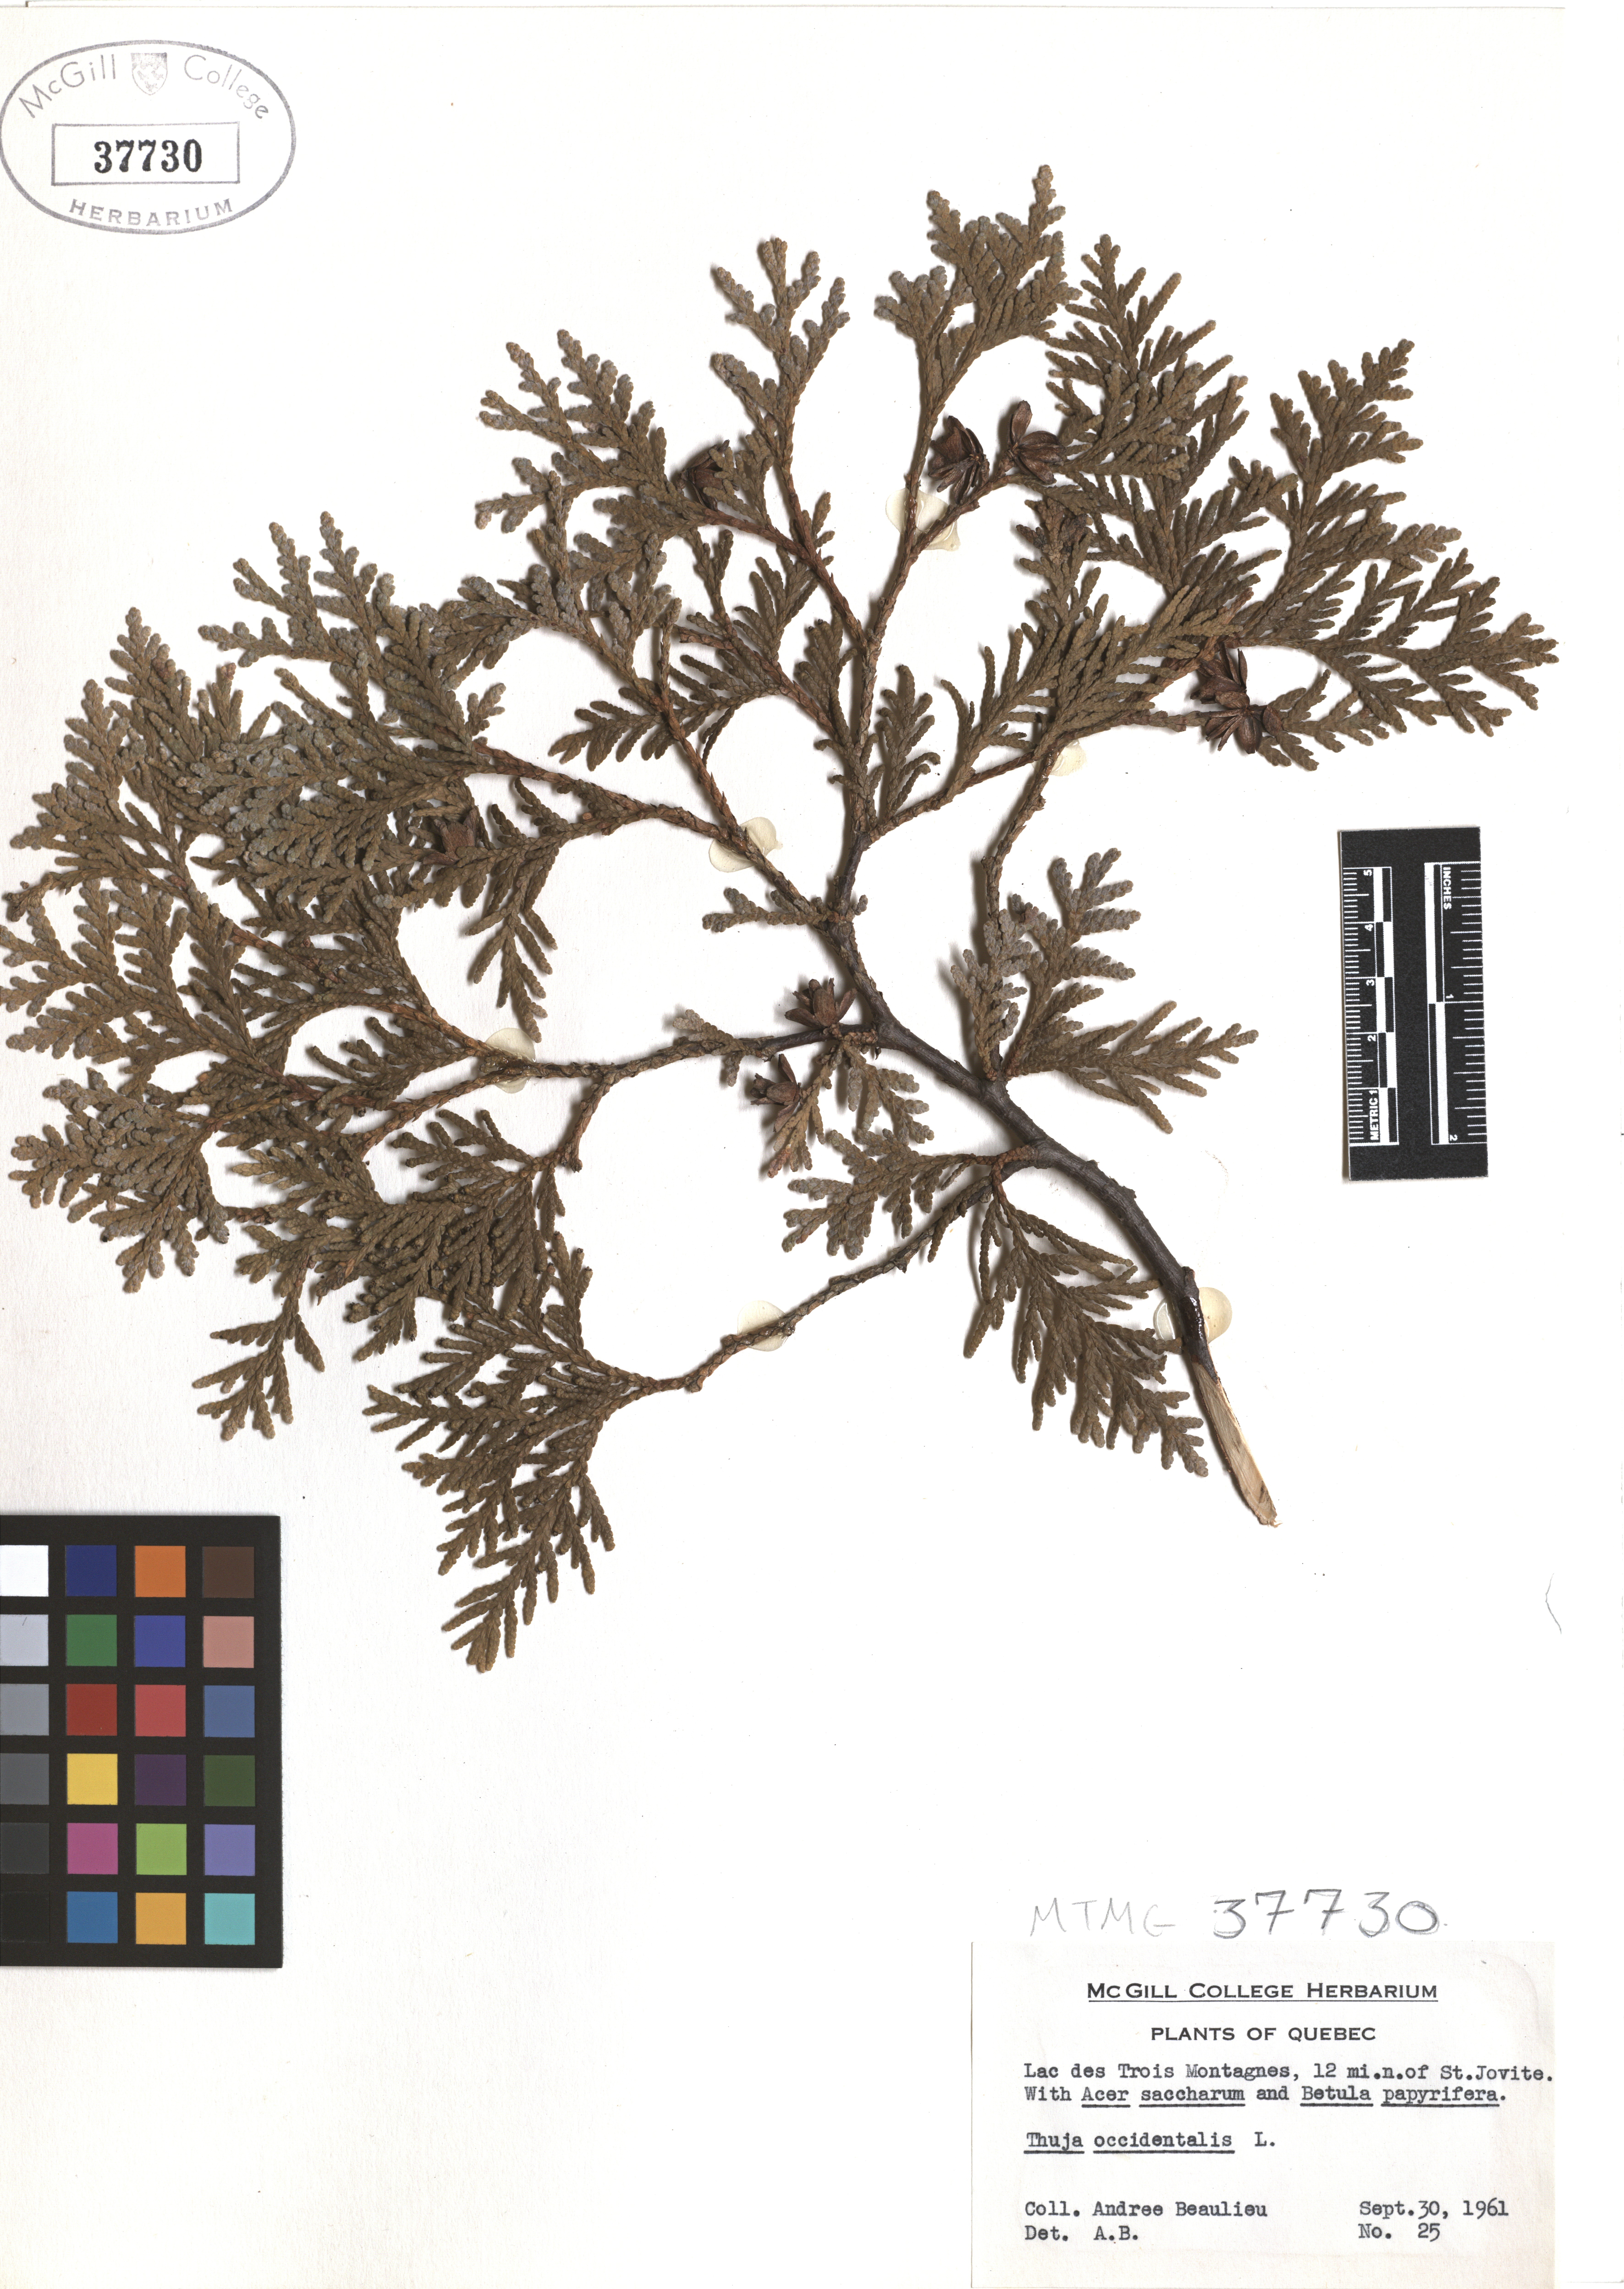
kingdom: Plantae
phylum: Tracheophyta
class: Pinopsida
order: Pinales
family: Cupressaceae
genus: Thuja
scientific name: Thuja occidentalis
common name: Northern white-cedar
